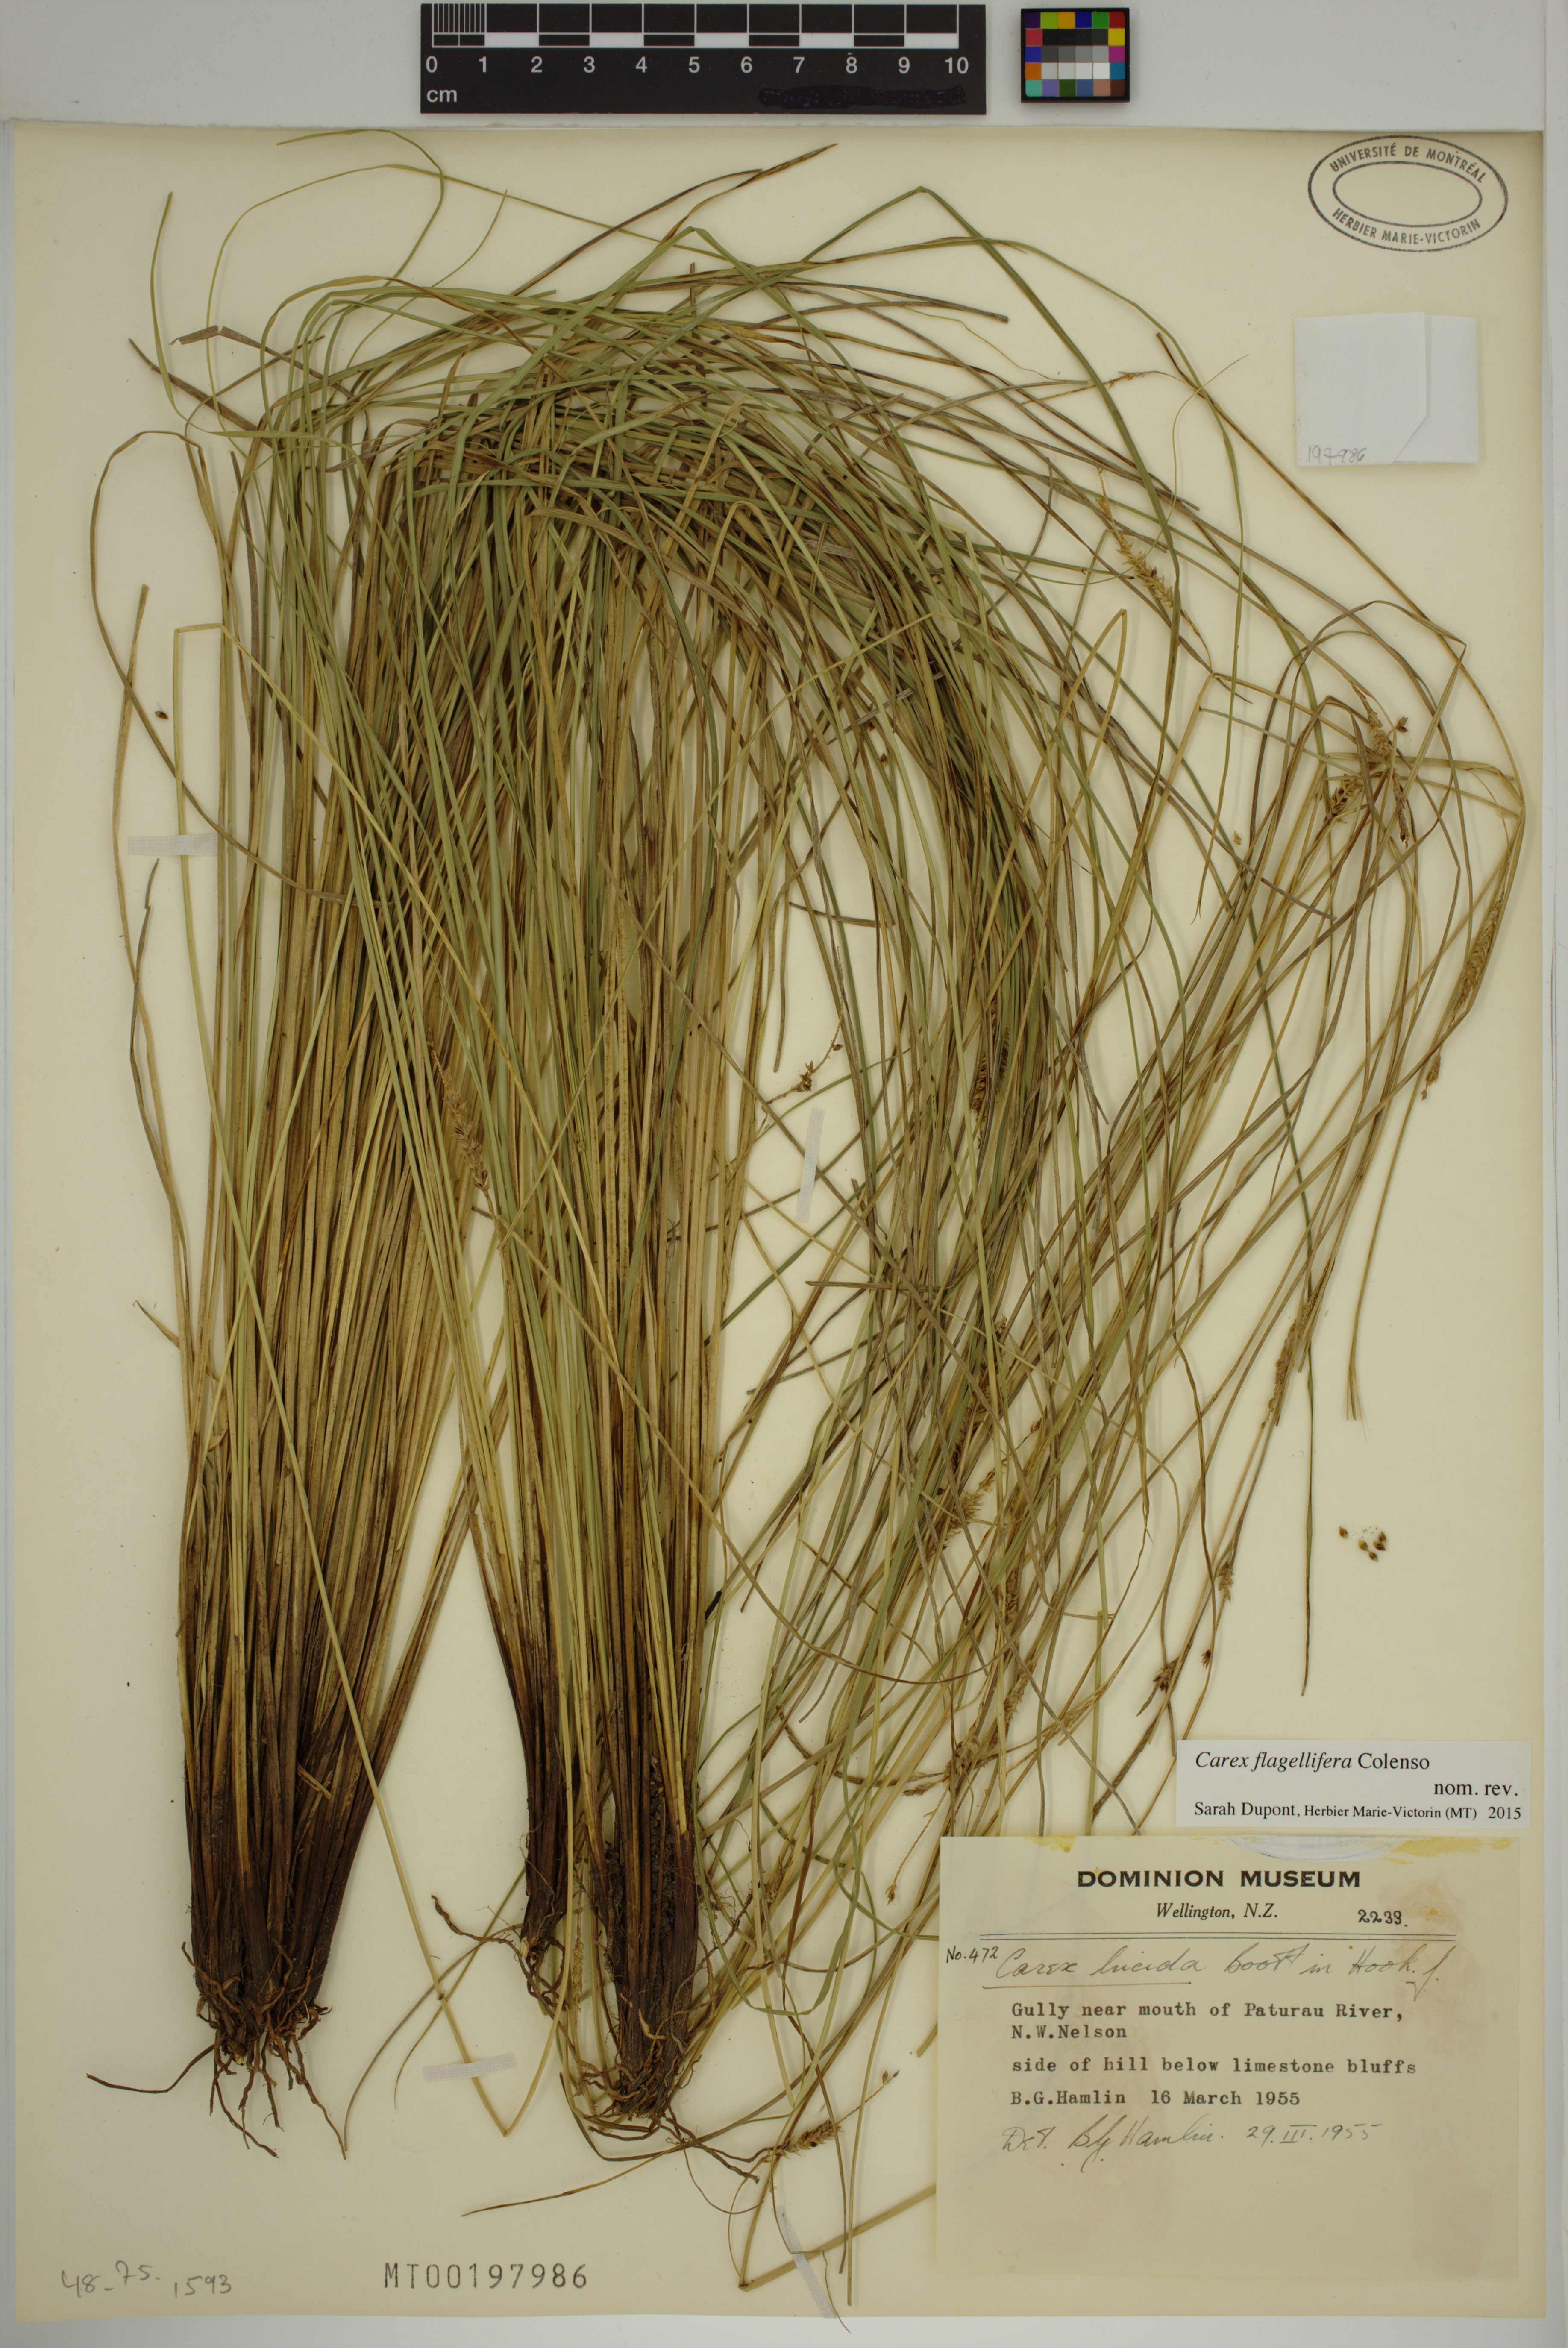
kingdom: Plantae
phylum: Tracheophyta
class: Liliopsida
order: Poales
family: Cyperaceae
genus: Carex
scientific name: Carex flagellifera
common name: Glen murray tussock
